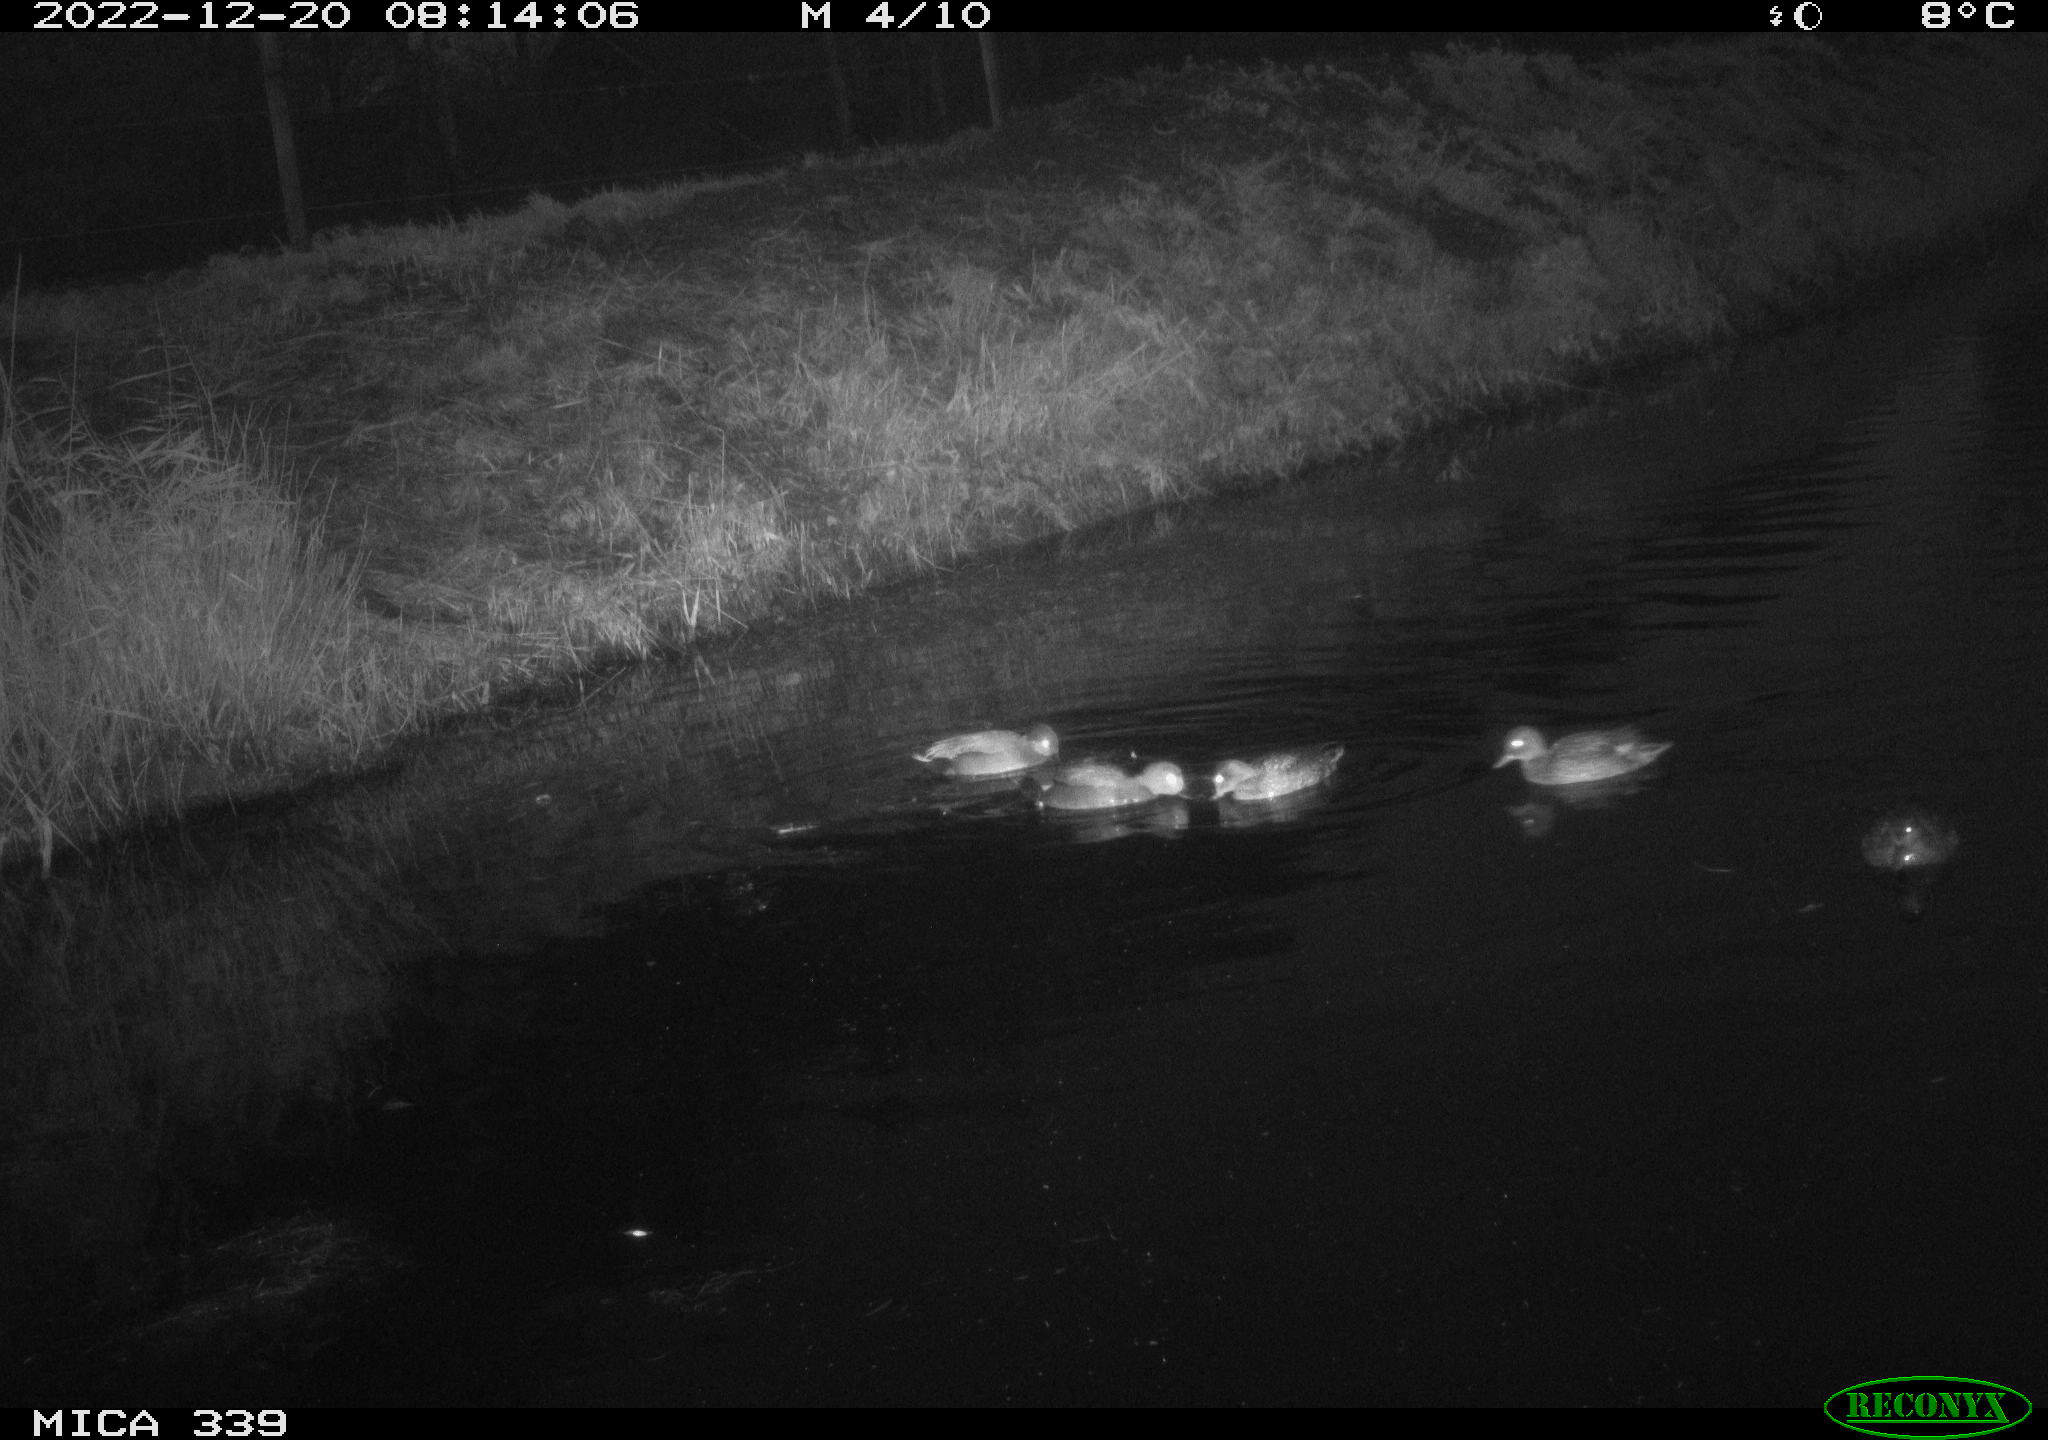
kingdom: Animalia
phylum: Chordata
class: Aves
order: Anseriformes
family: Anatidae
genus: Anas
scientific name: Anas
